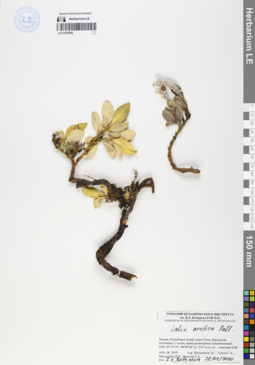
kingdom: Plantae
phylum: Tracheophyta
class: Magnoliopsida
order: Malpighiales
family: Salicaceae
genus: Salix
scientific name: Salix arctica
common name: Arctic willow
